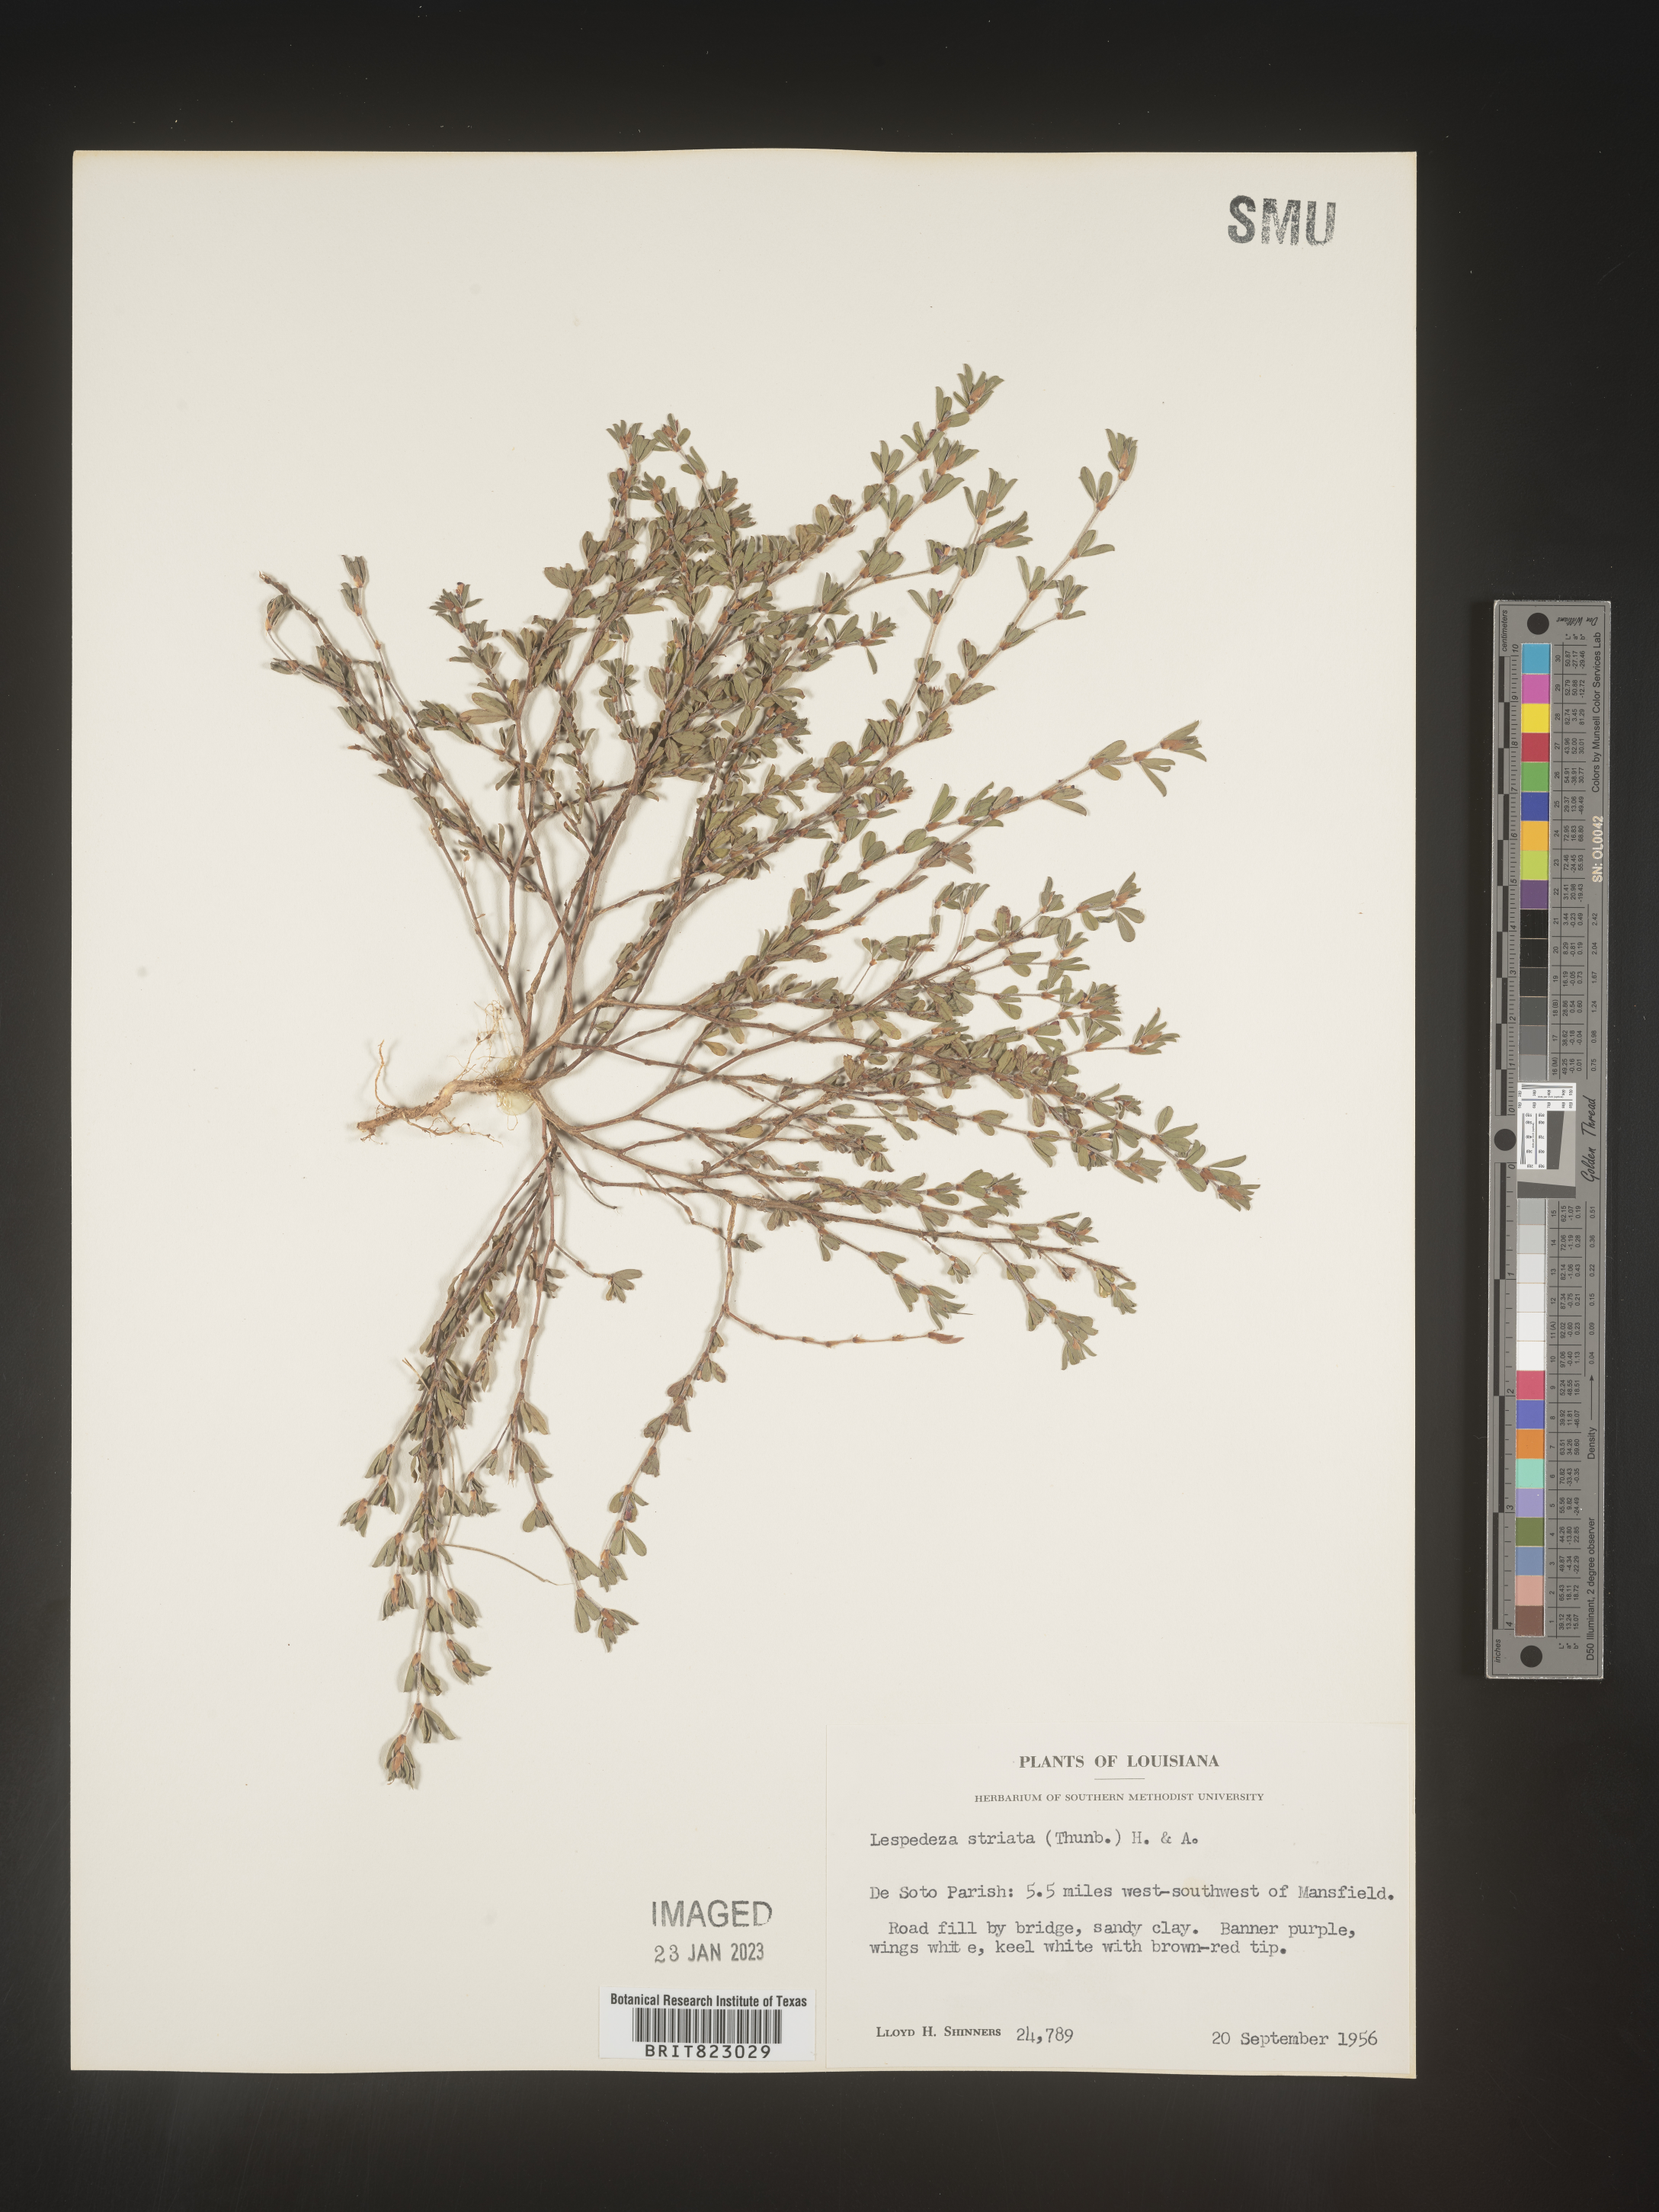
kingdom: Plantae
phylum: Tracheophyta
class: Magnoliopsida
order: Fabales
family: Fabaceae
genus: Kummerowia
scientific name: Kummerowia striata
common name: Japanese clover
